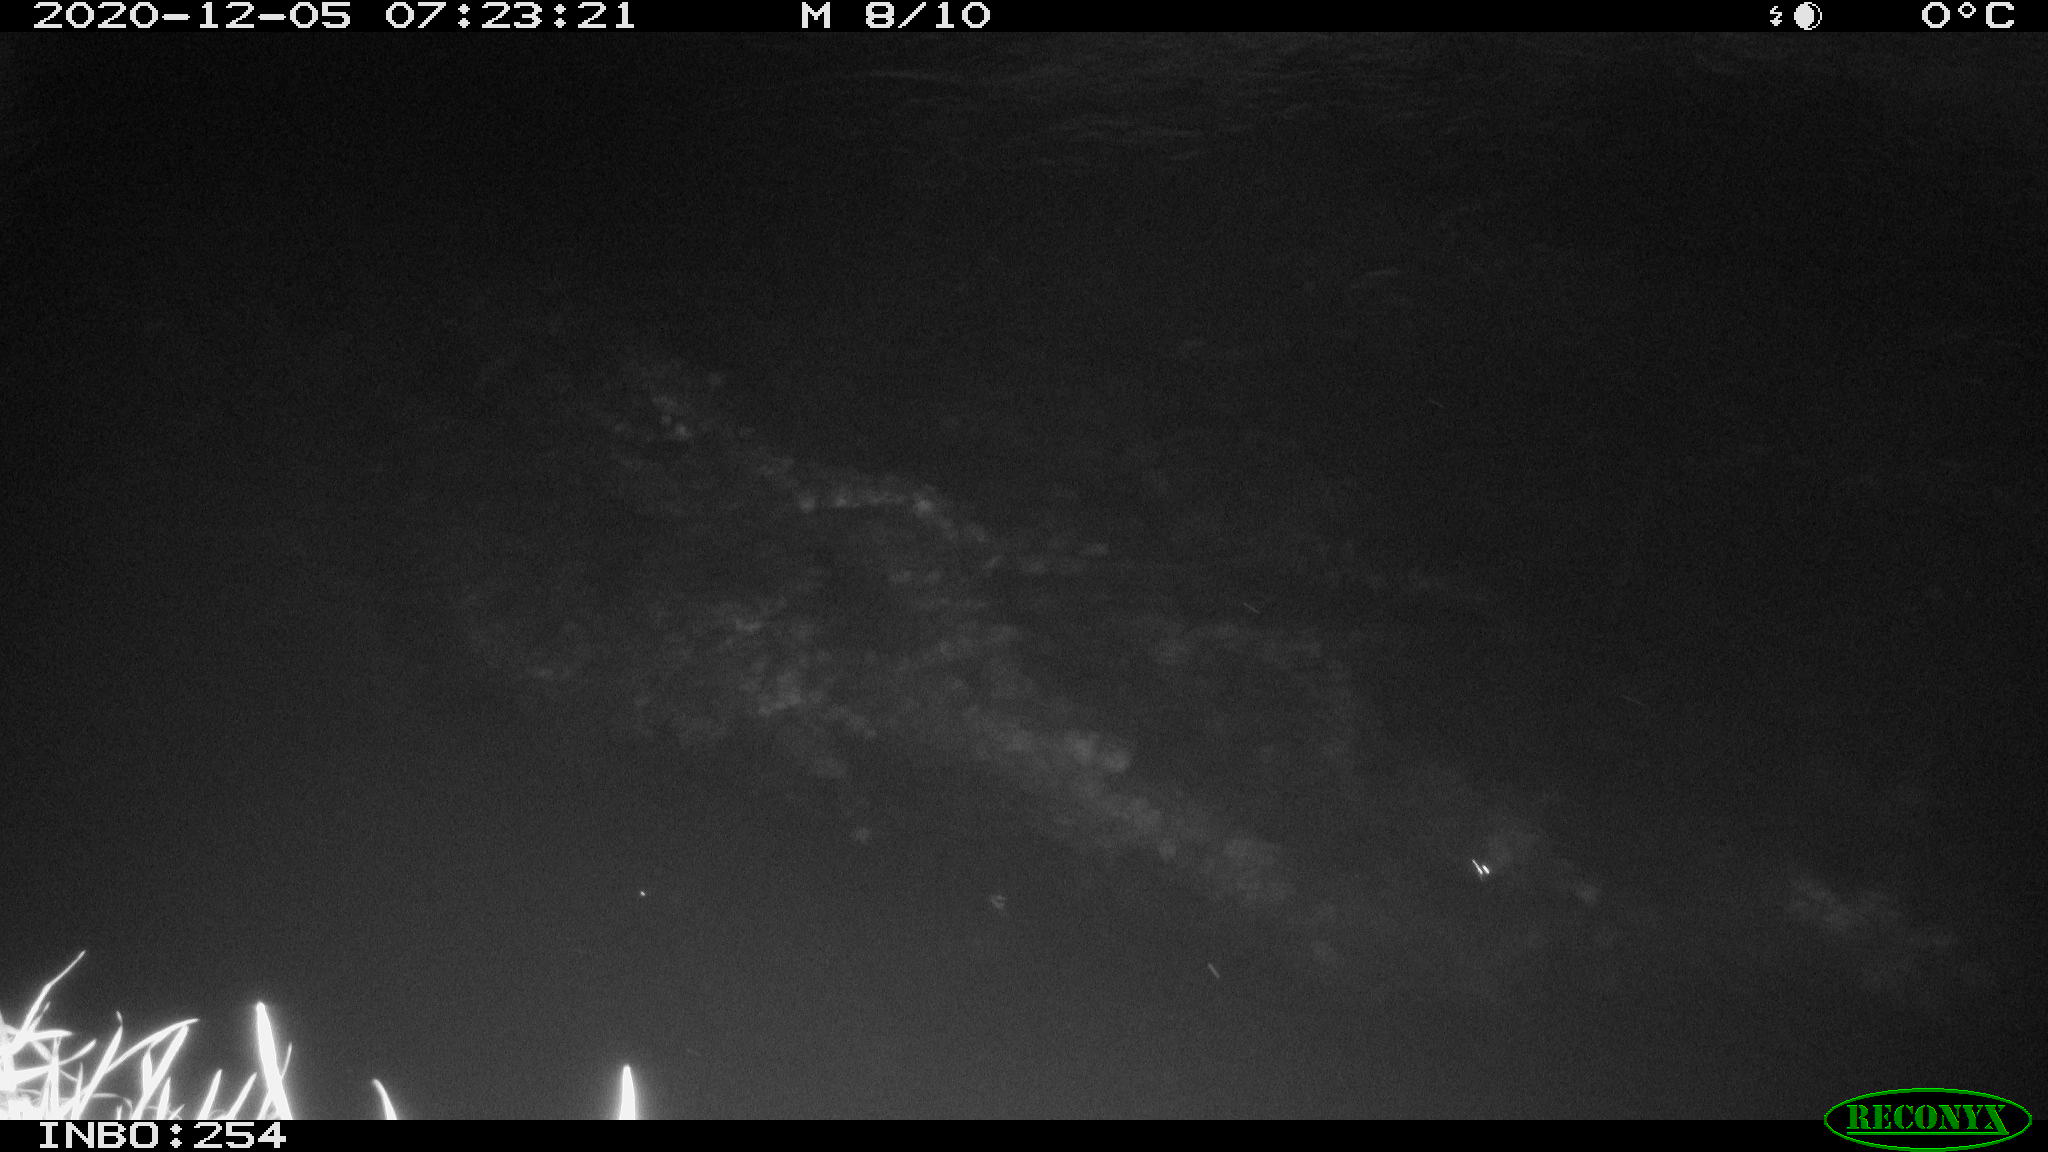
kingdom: Animalia
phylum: Chordata
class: Aves
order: Anseriformes
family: Anatidae
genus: Anas
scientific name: Anas platyrhynchos
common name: Mallard
